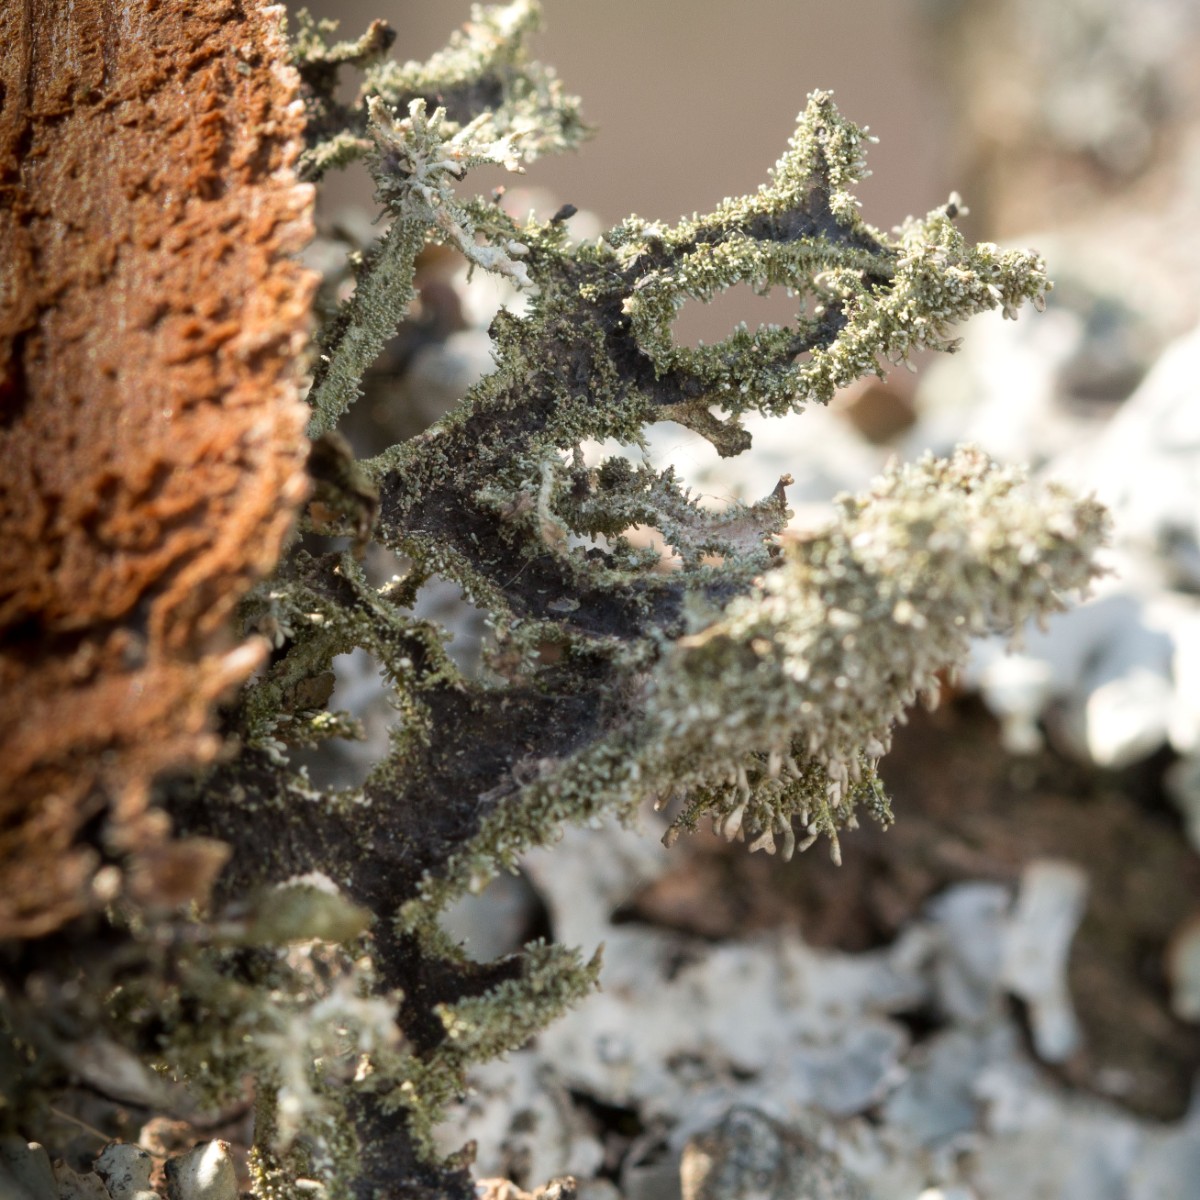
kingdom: Fungi
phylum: Ascomycota
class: Lecanoromycetes
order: Lecanorales
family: Parmeliaceae
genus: Pseudevernia
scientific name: Pseudevernia furfuracea
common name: grå fyrrelav
